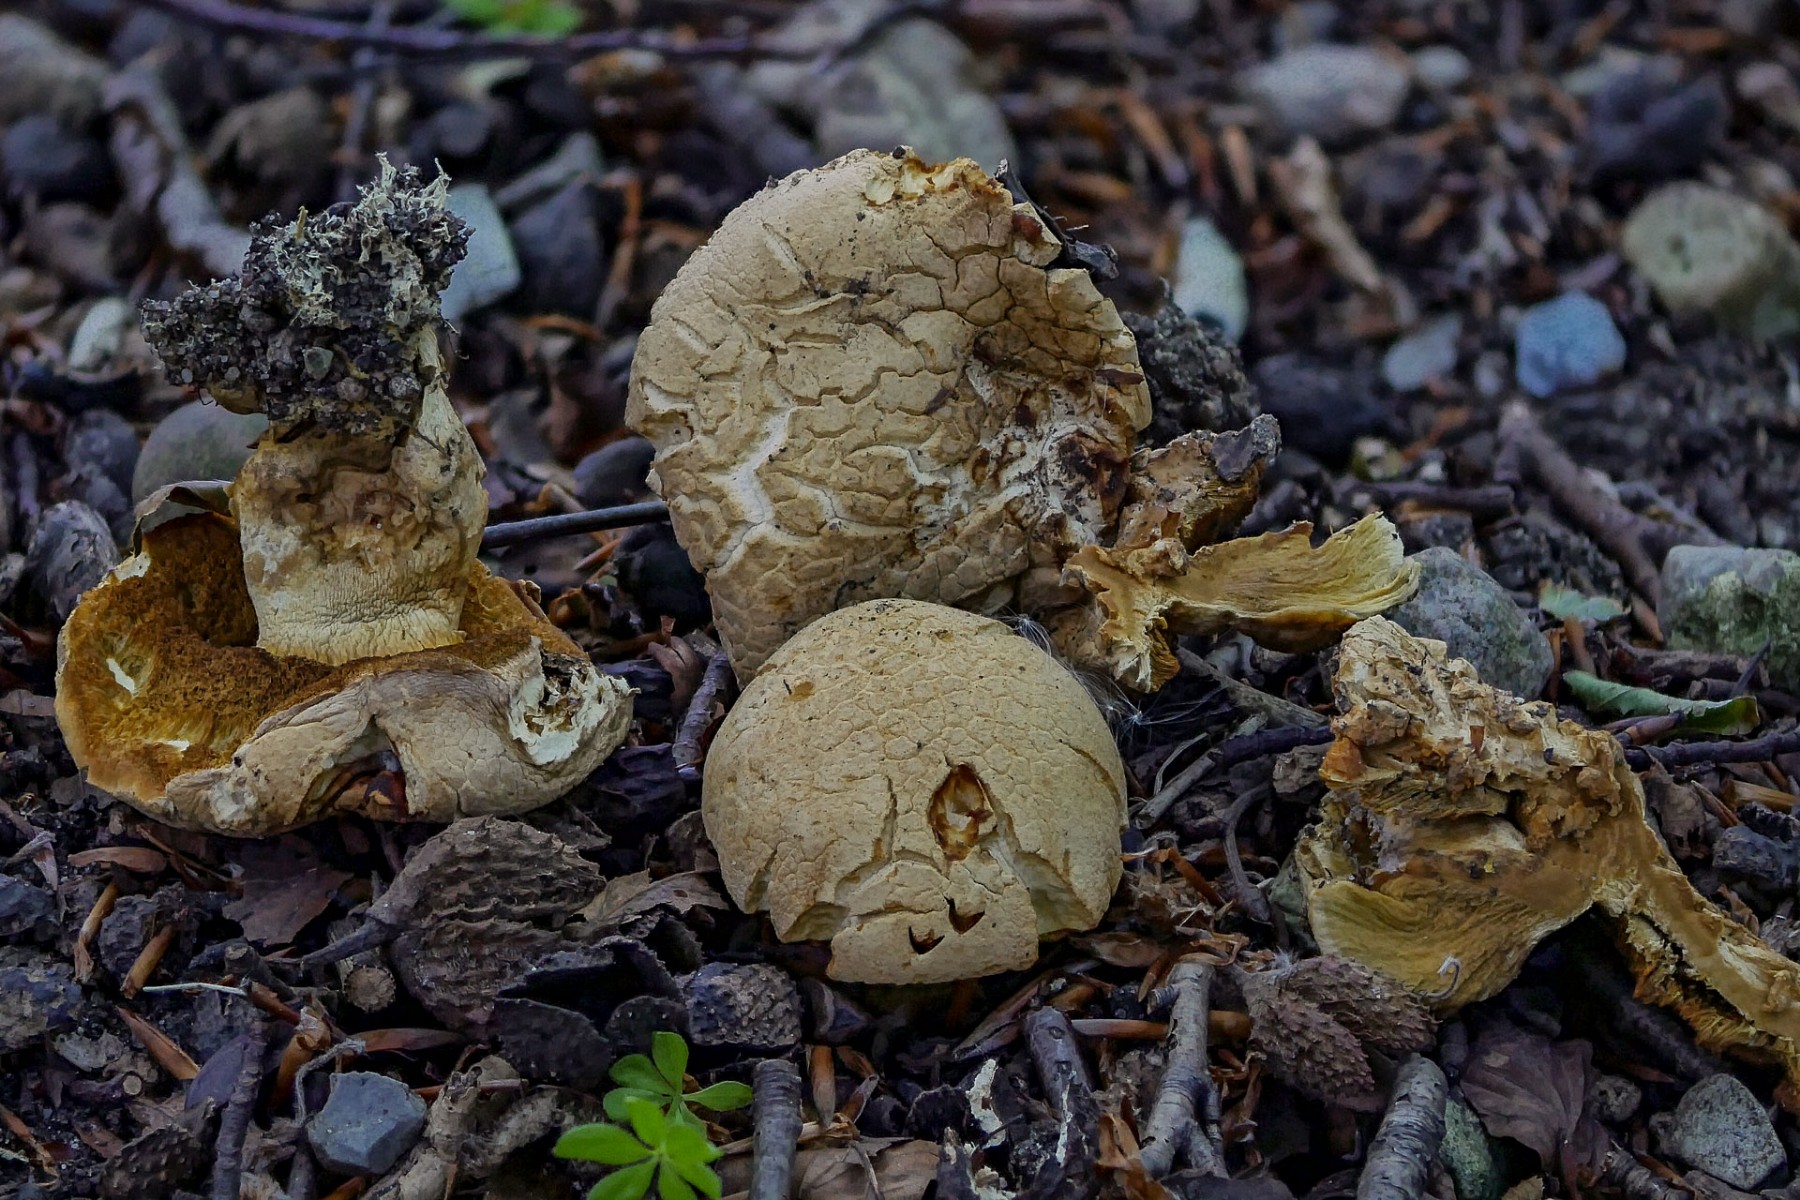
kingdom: Fungi
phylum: Basidiomycota
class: Agaricomycetes
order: Boletales
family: Boletaceae
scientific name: Boletaceae
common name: rørhatfamilien
